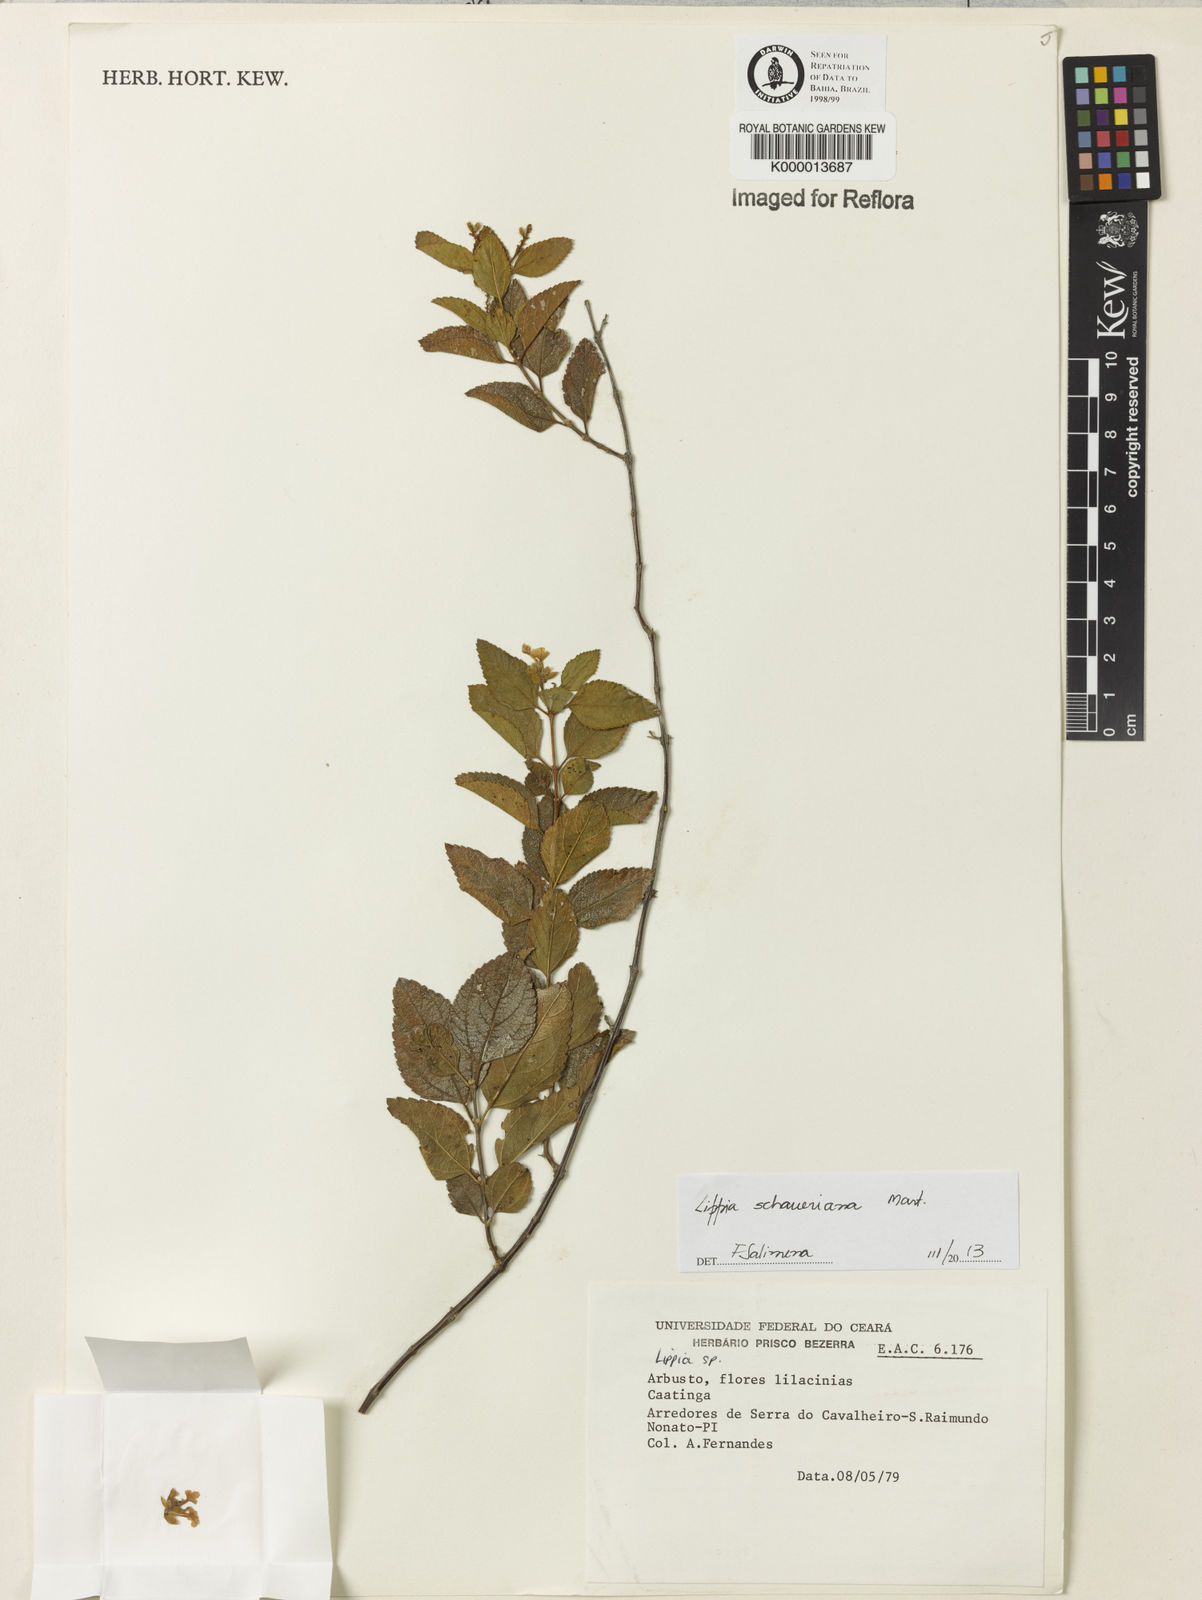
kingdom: Plantae
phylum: Tracheophyta
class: Magnoliopsida
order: Lamiales
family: Verbenaceae
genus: Lippia
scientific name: Lippia
